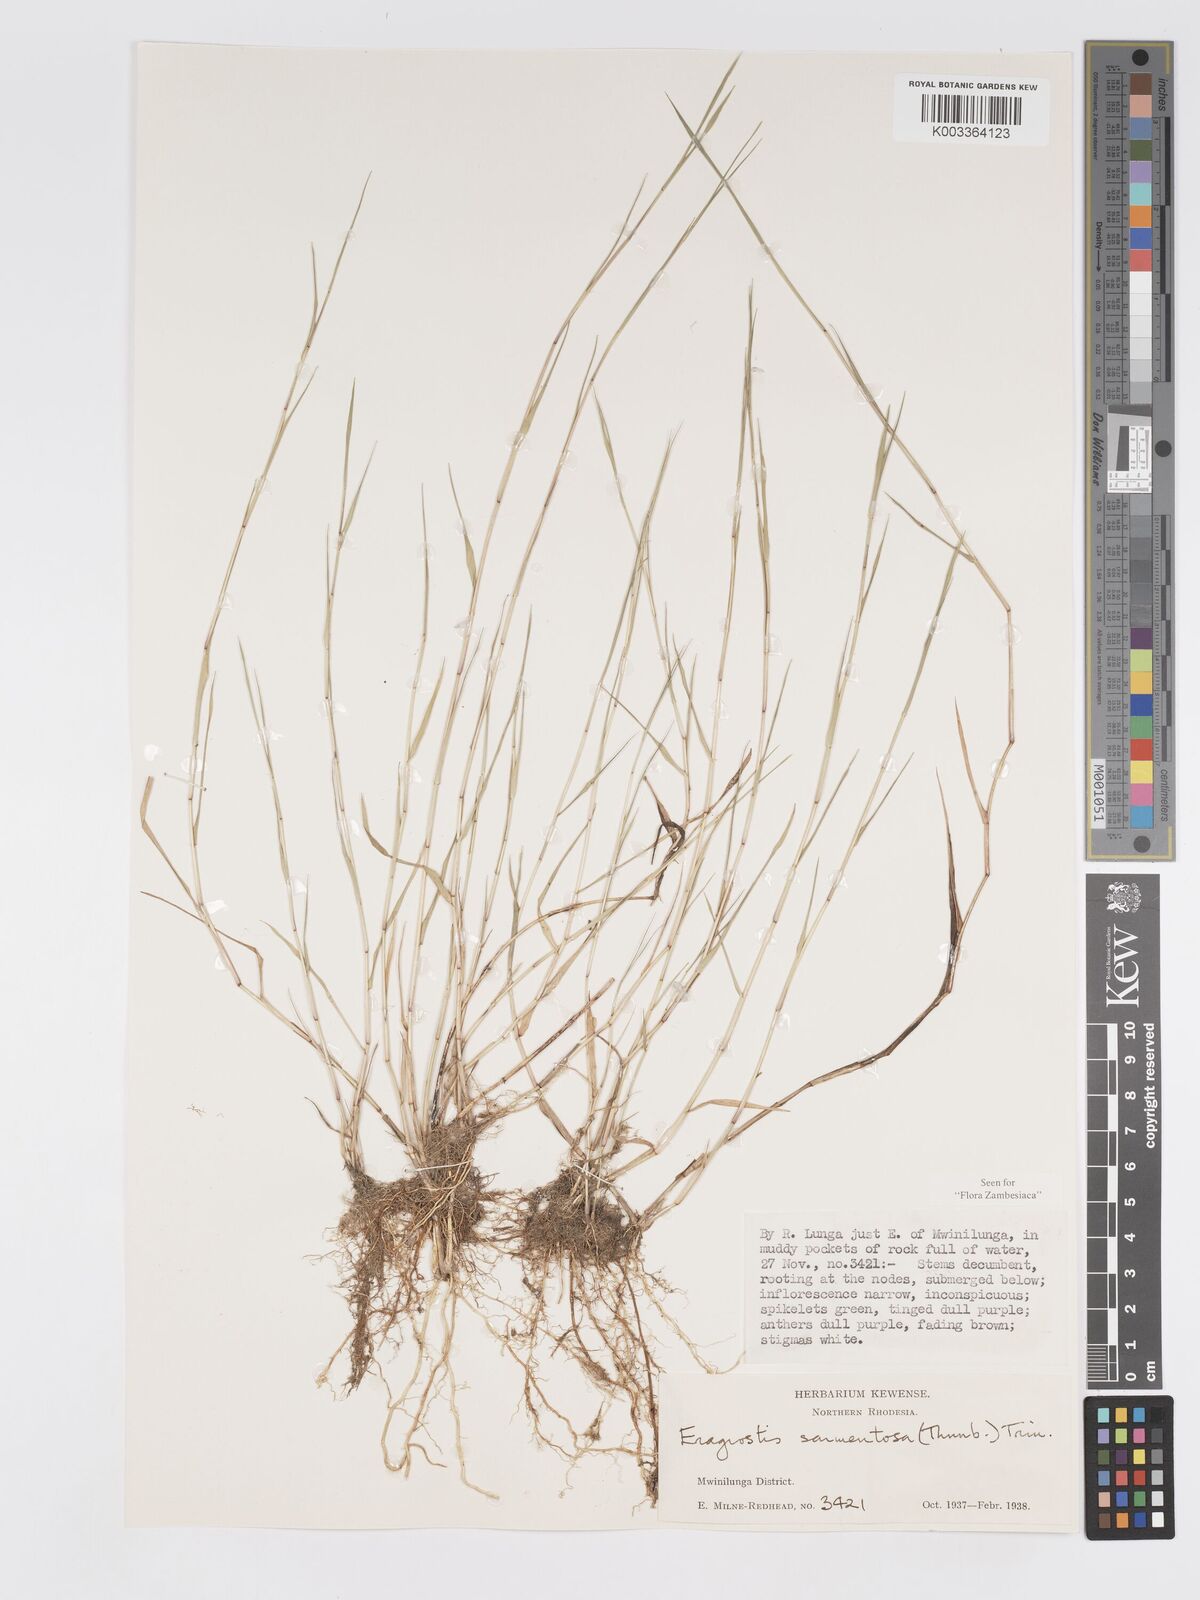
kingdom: Plantae
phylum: Tracheophyta
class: Liliopsida
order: Poales
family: Poaceae
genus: Eragrostis
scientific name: Eragrostis sarmentosa
